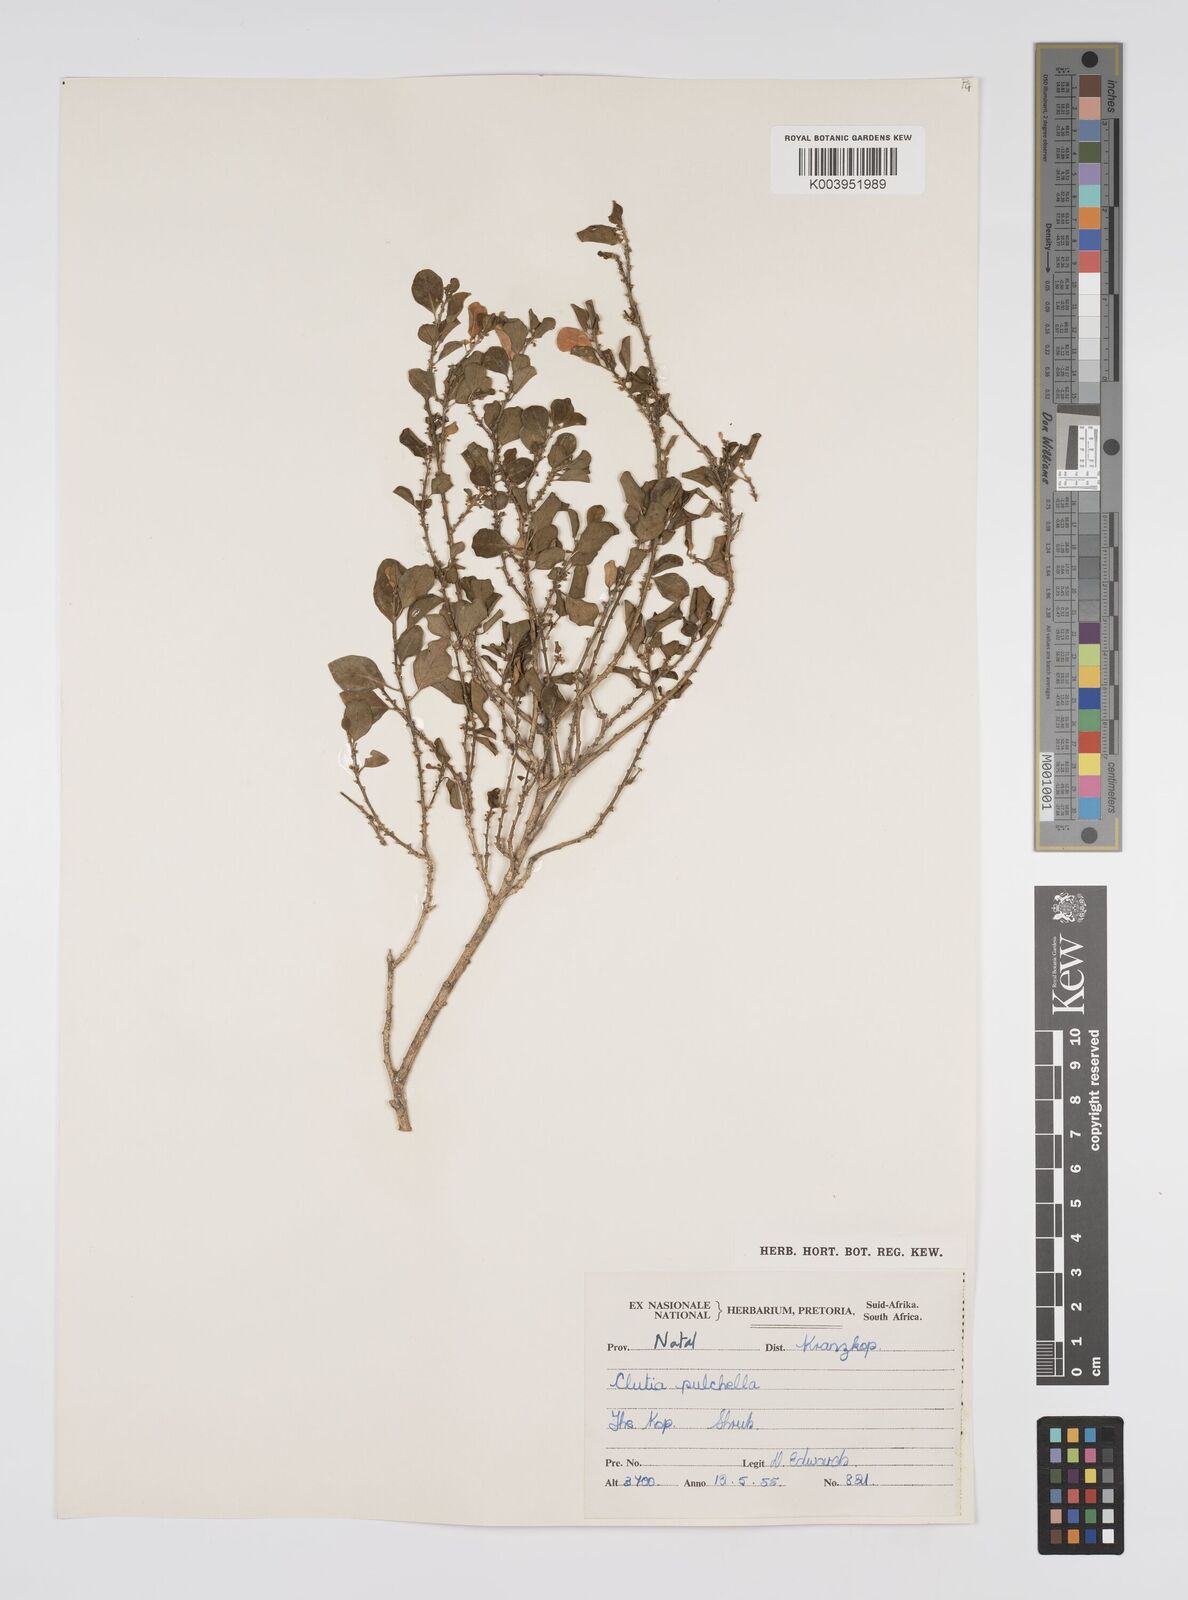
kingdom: Plantae
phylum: Tracheophyta
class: Magnoliopsida
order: Malpighiales
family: Peraceae
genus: Clutia
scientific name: Clutia pulchella
